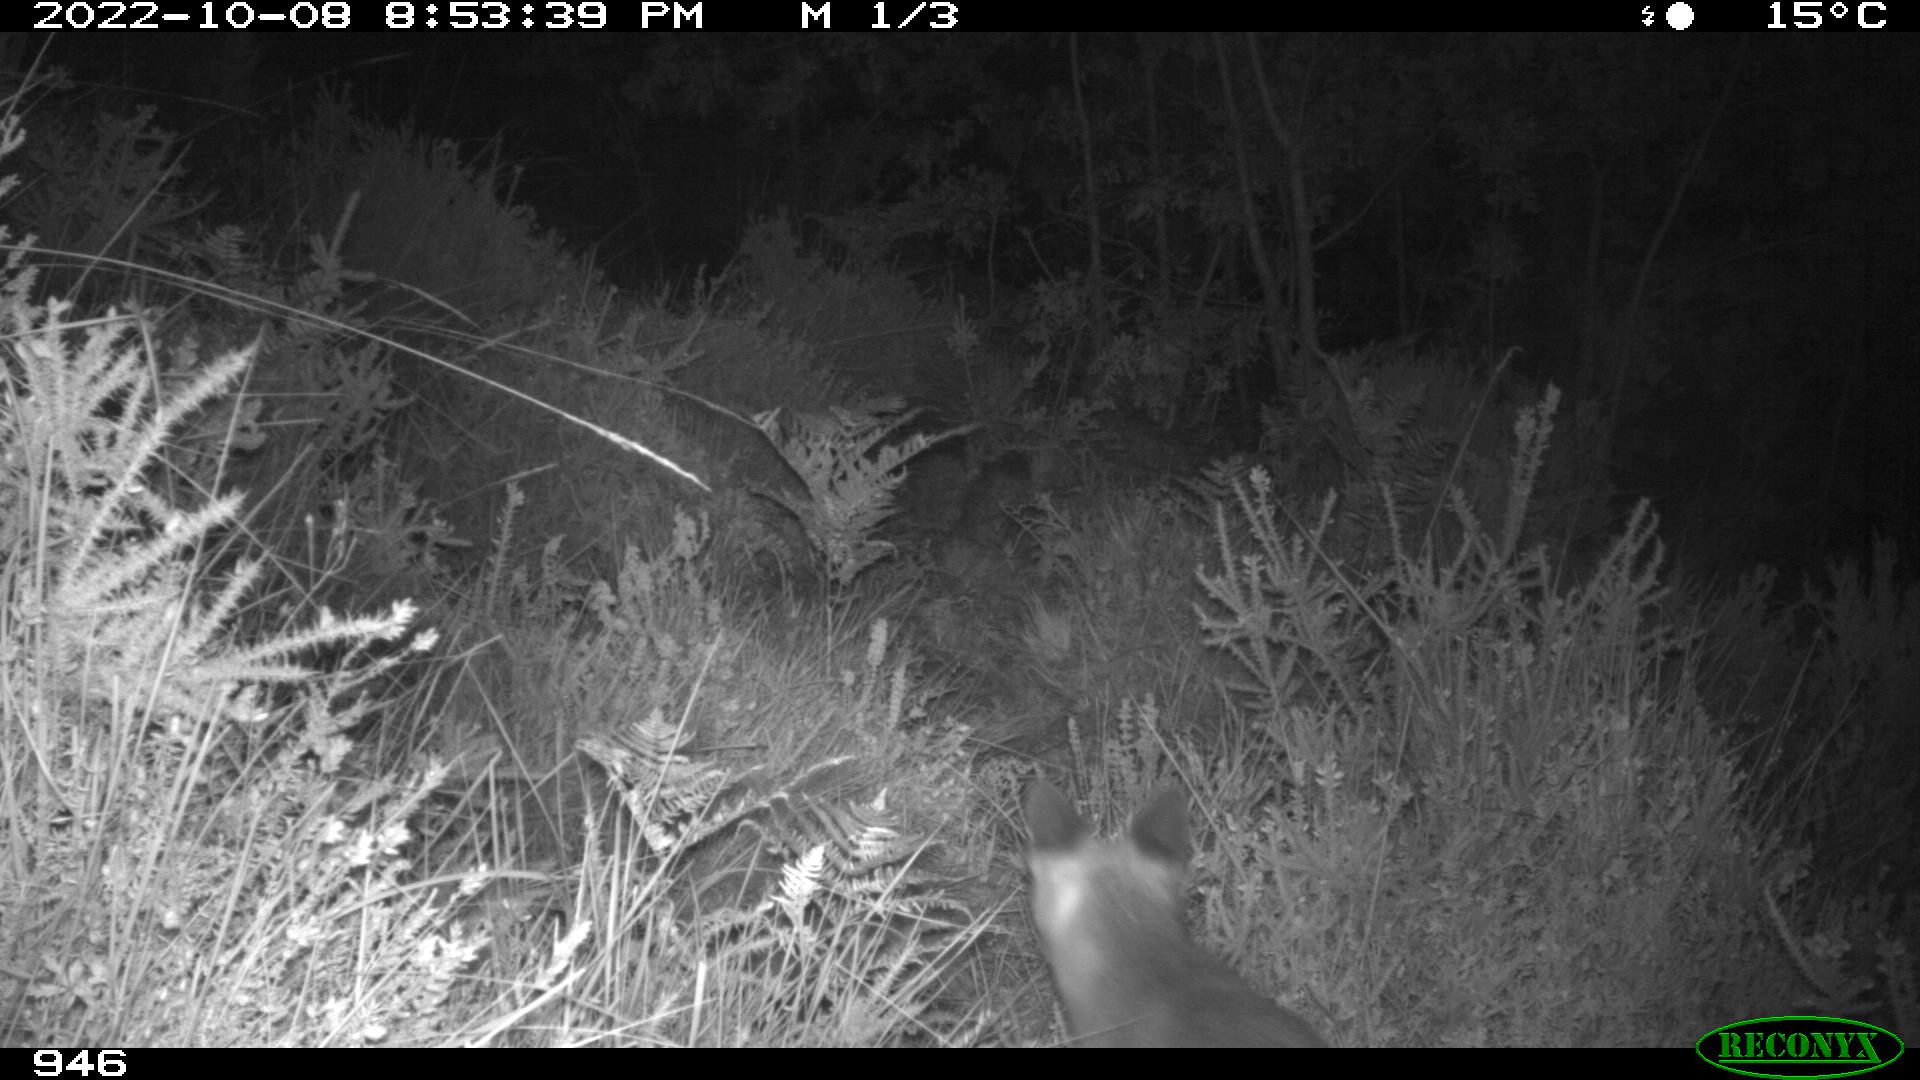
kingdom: Animalia
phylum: Chordata
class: Mammalia
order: Carnivora
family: Canidae
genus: Vulpes
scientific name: Vulpes vulpes
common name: Red fox
